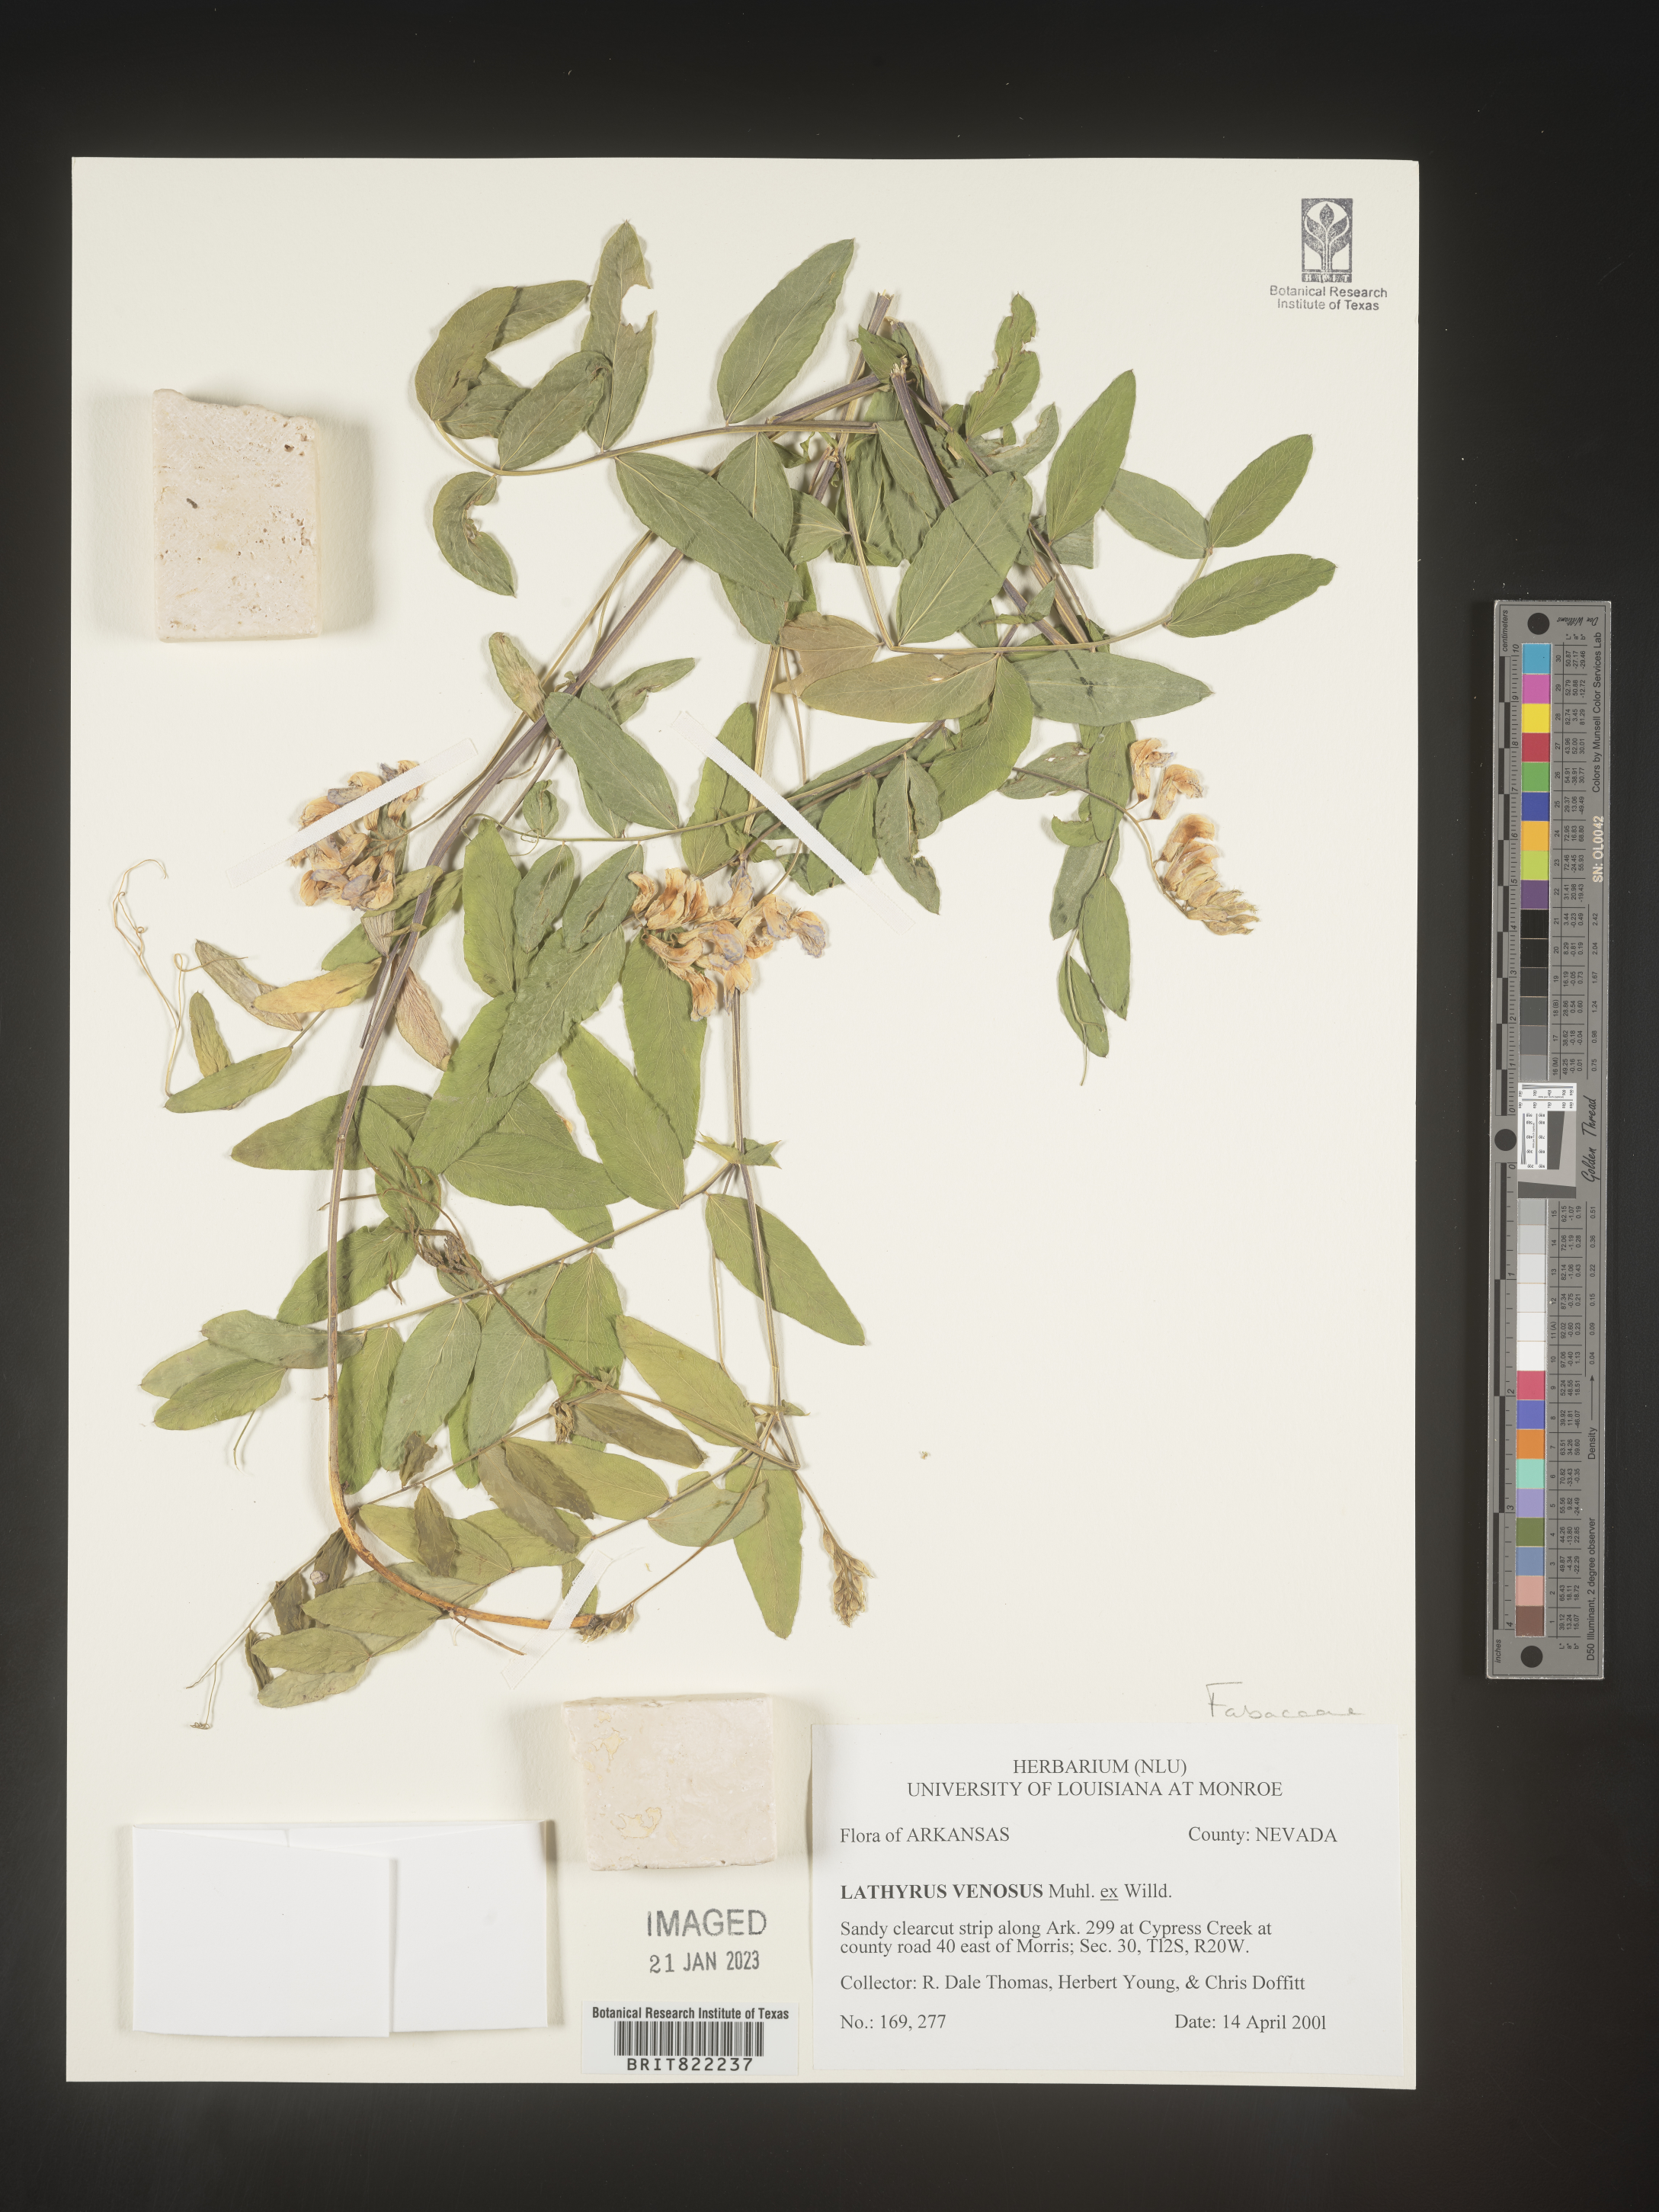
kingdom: Plantae
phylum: Tracheophyta
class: Magnoliopsida
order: Fabales
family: Fabaceae
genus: Lathyrus
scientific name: Lathyrus venosus
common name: Forest-pea
